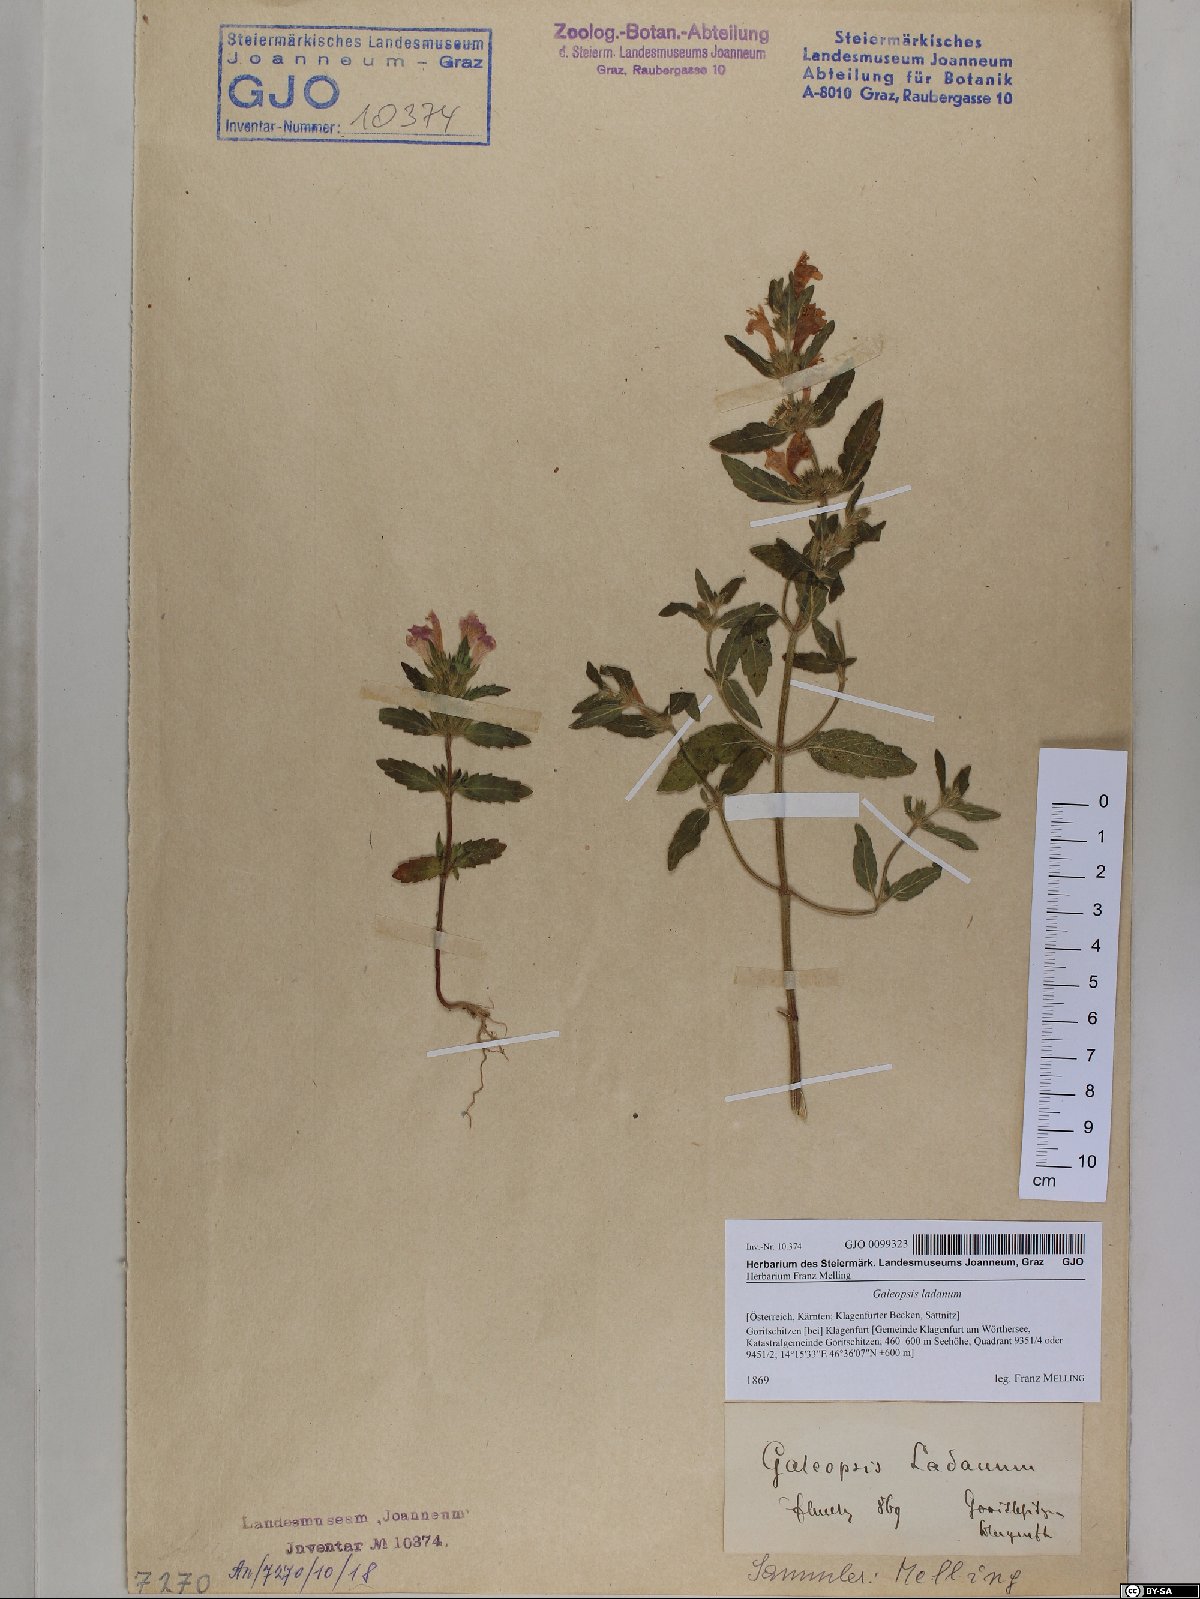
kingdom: Plantae
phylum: Tracheophyta
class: Magnoliopsida
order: Lamiales
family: Lamiaceae
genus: Galeopsis
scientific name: Galeopsis ladanum
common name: Broad-leaved hemp-nettle
